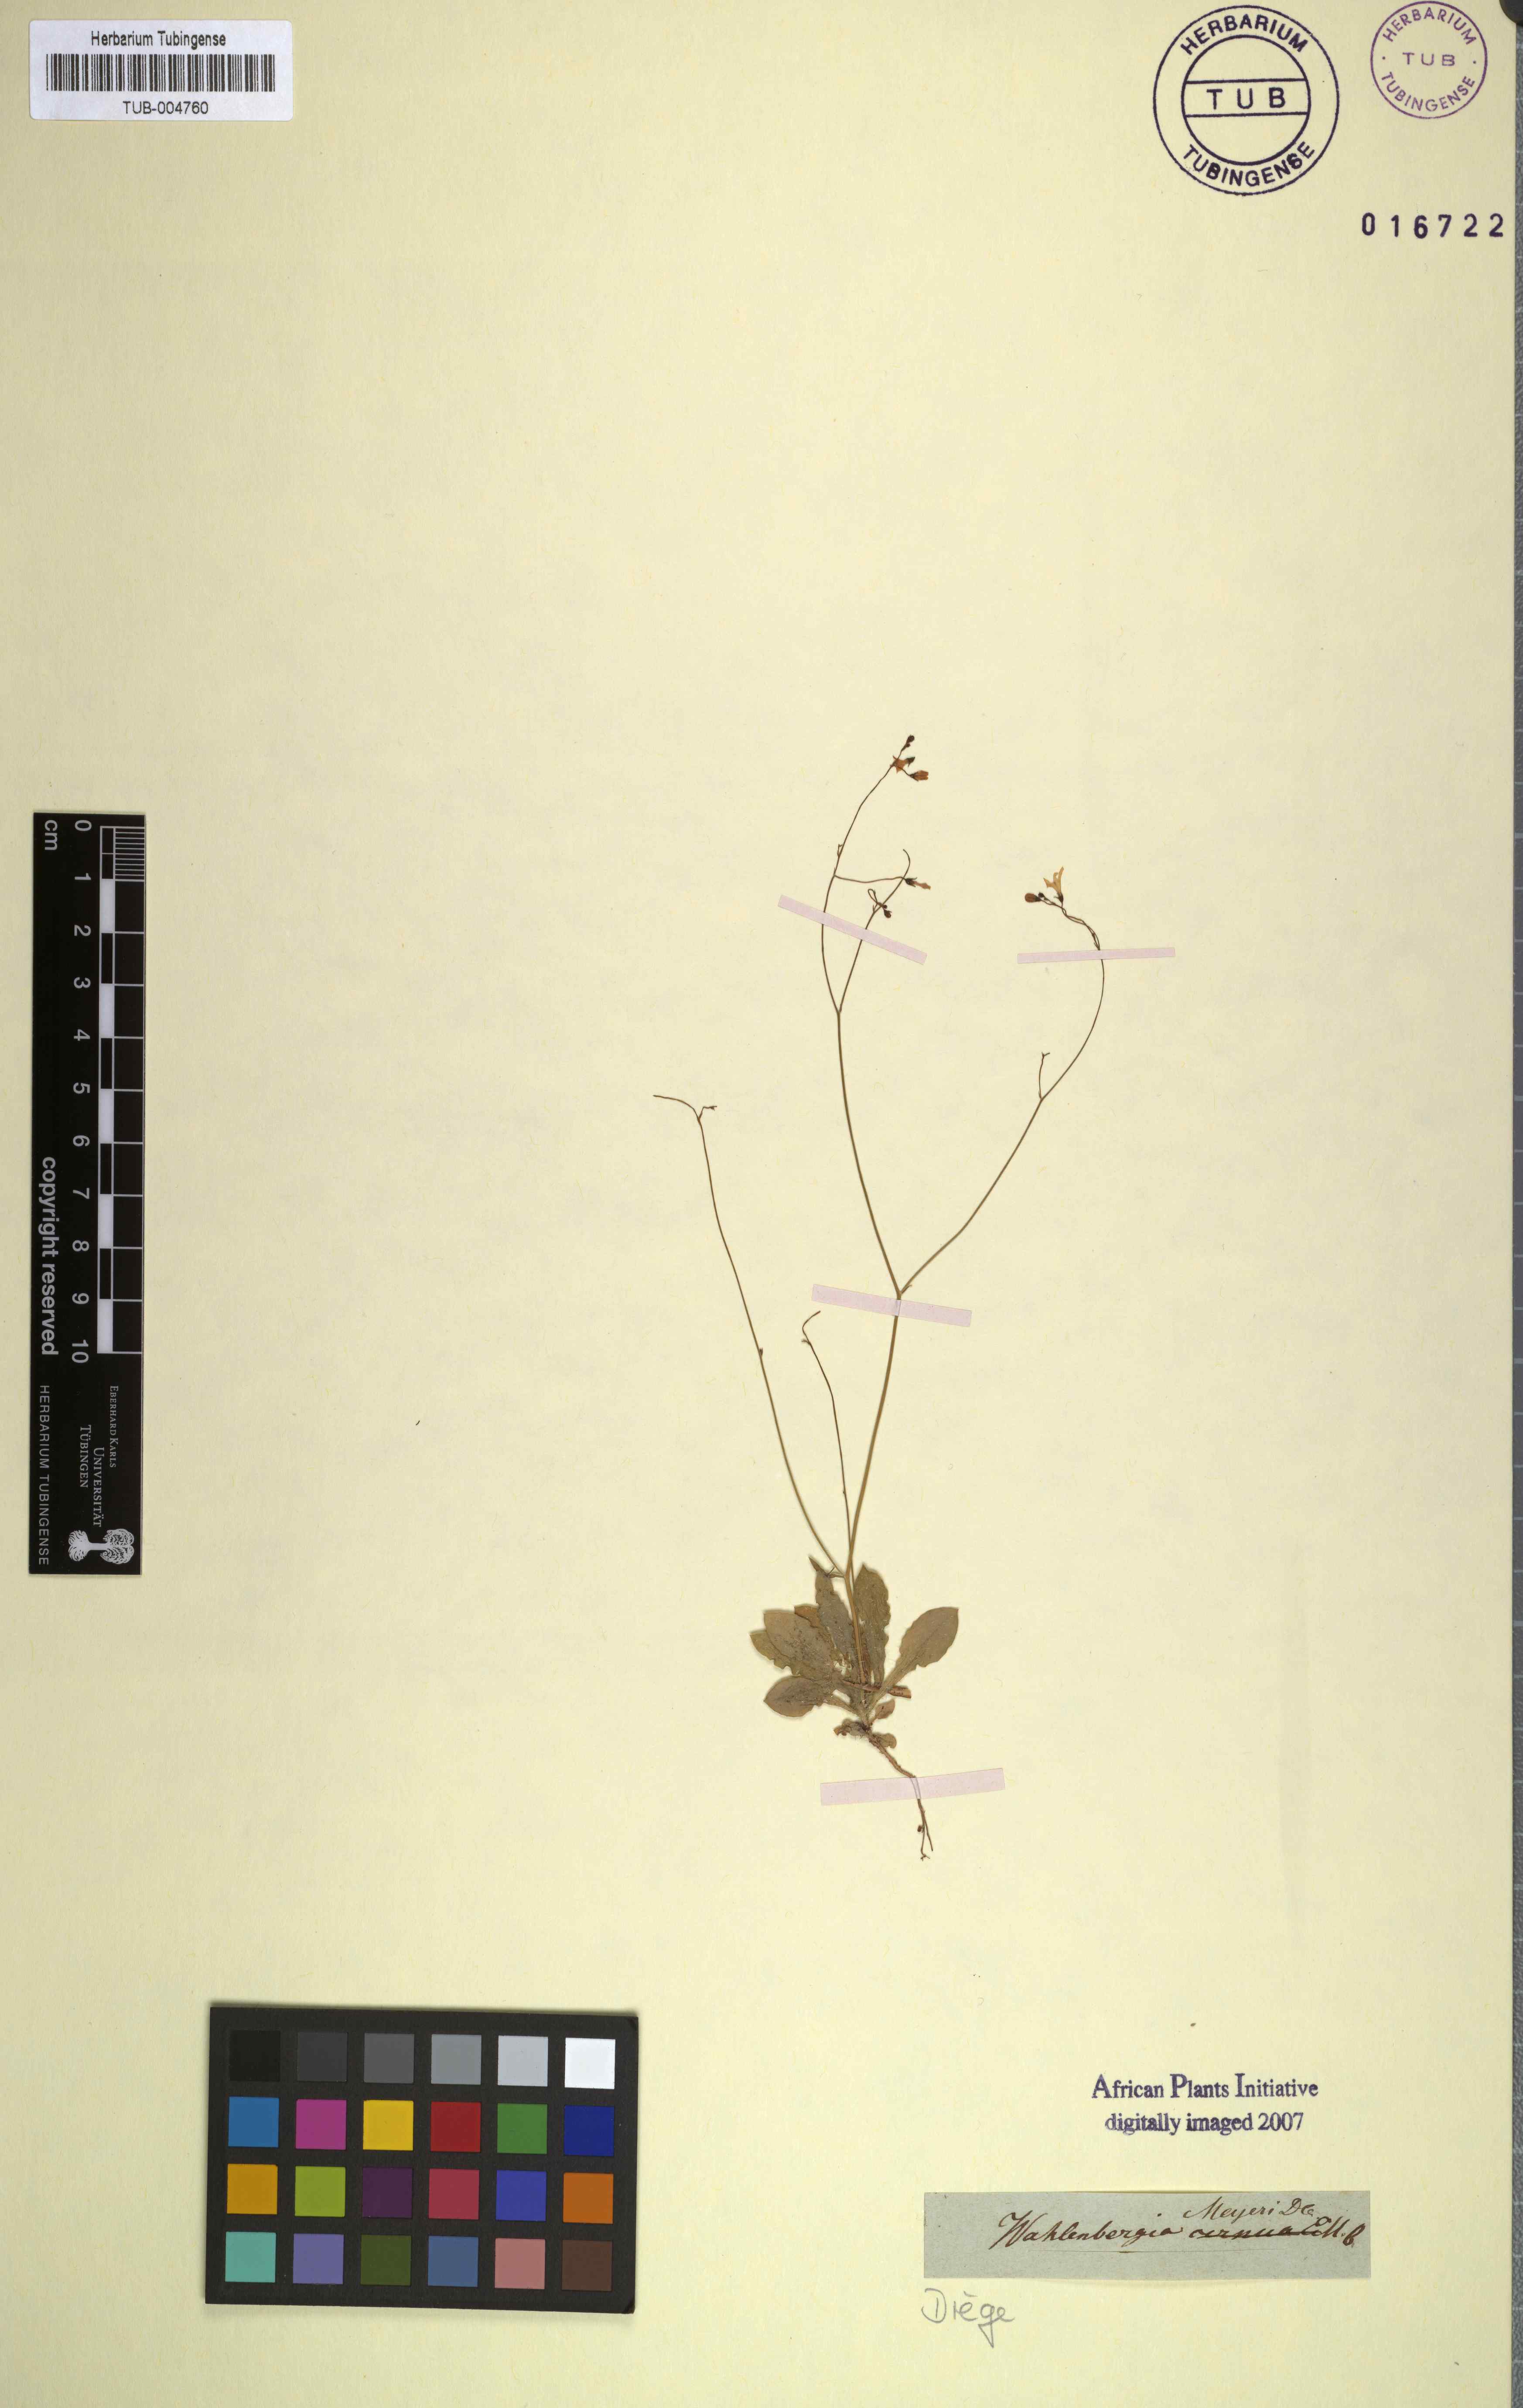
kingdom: Plantae
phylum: Tracheophyta
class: Magnoliopsida
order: Asterales
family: Campanulaceae
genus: Wahlenbergia
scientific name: Wahlenbergia meyeri
